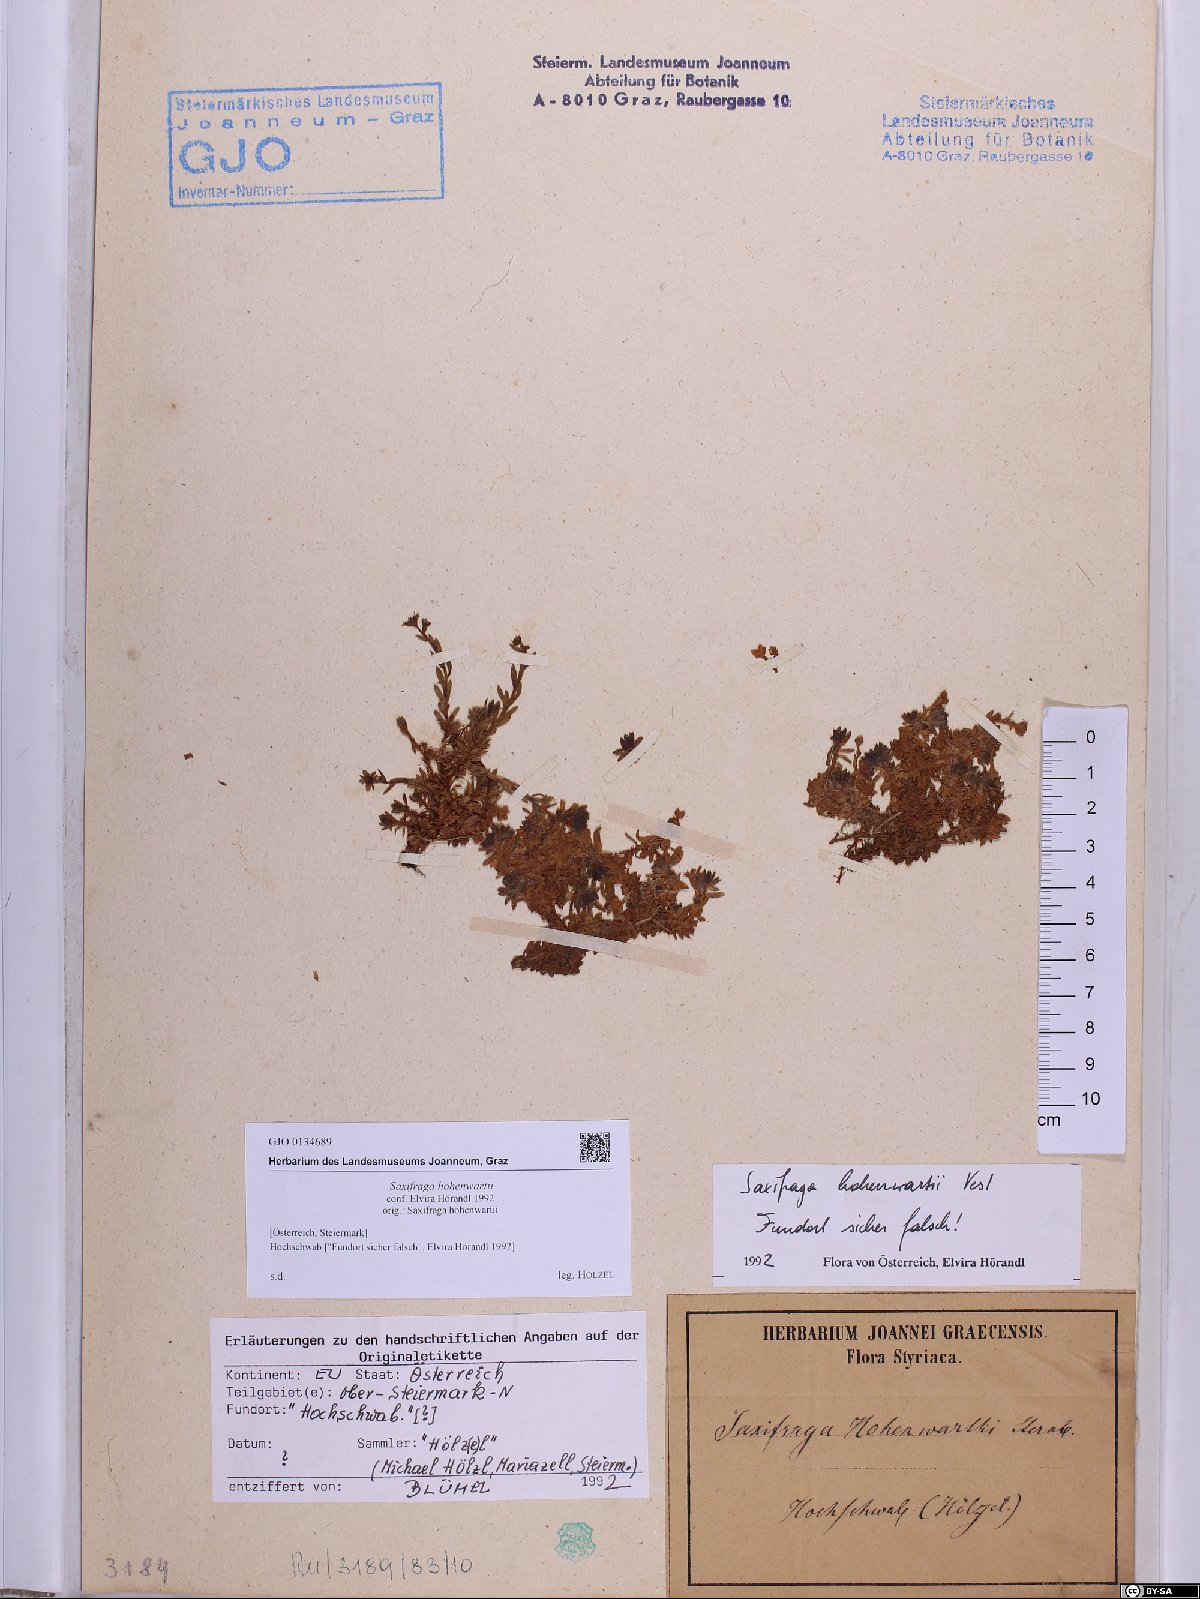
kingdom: Plantae
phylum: Tracheophyta
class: Magnoliopsida
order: Saxifragales
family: Saxifragaceae
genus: Saxifraga
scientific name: Saxifraga hohenwartii
